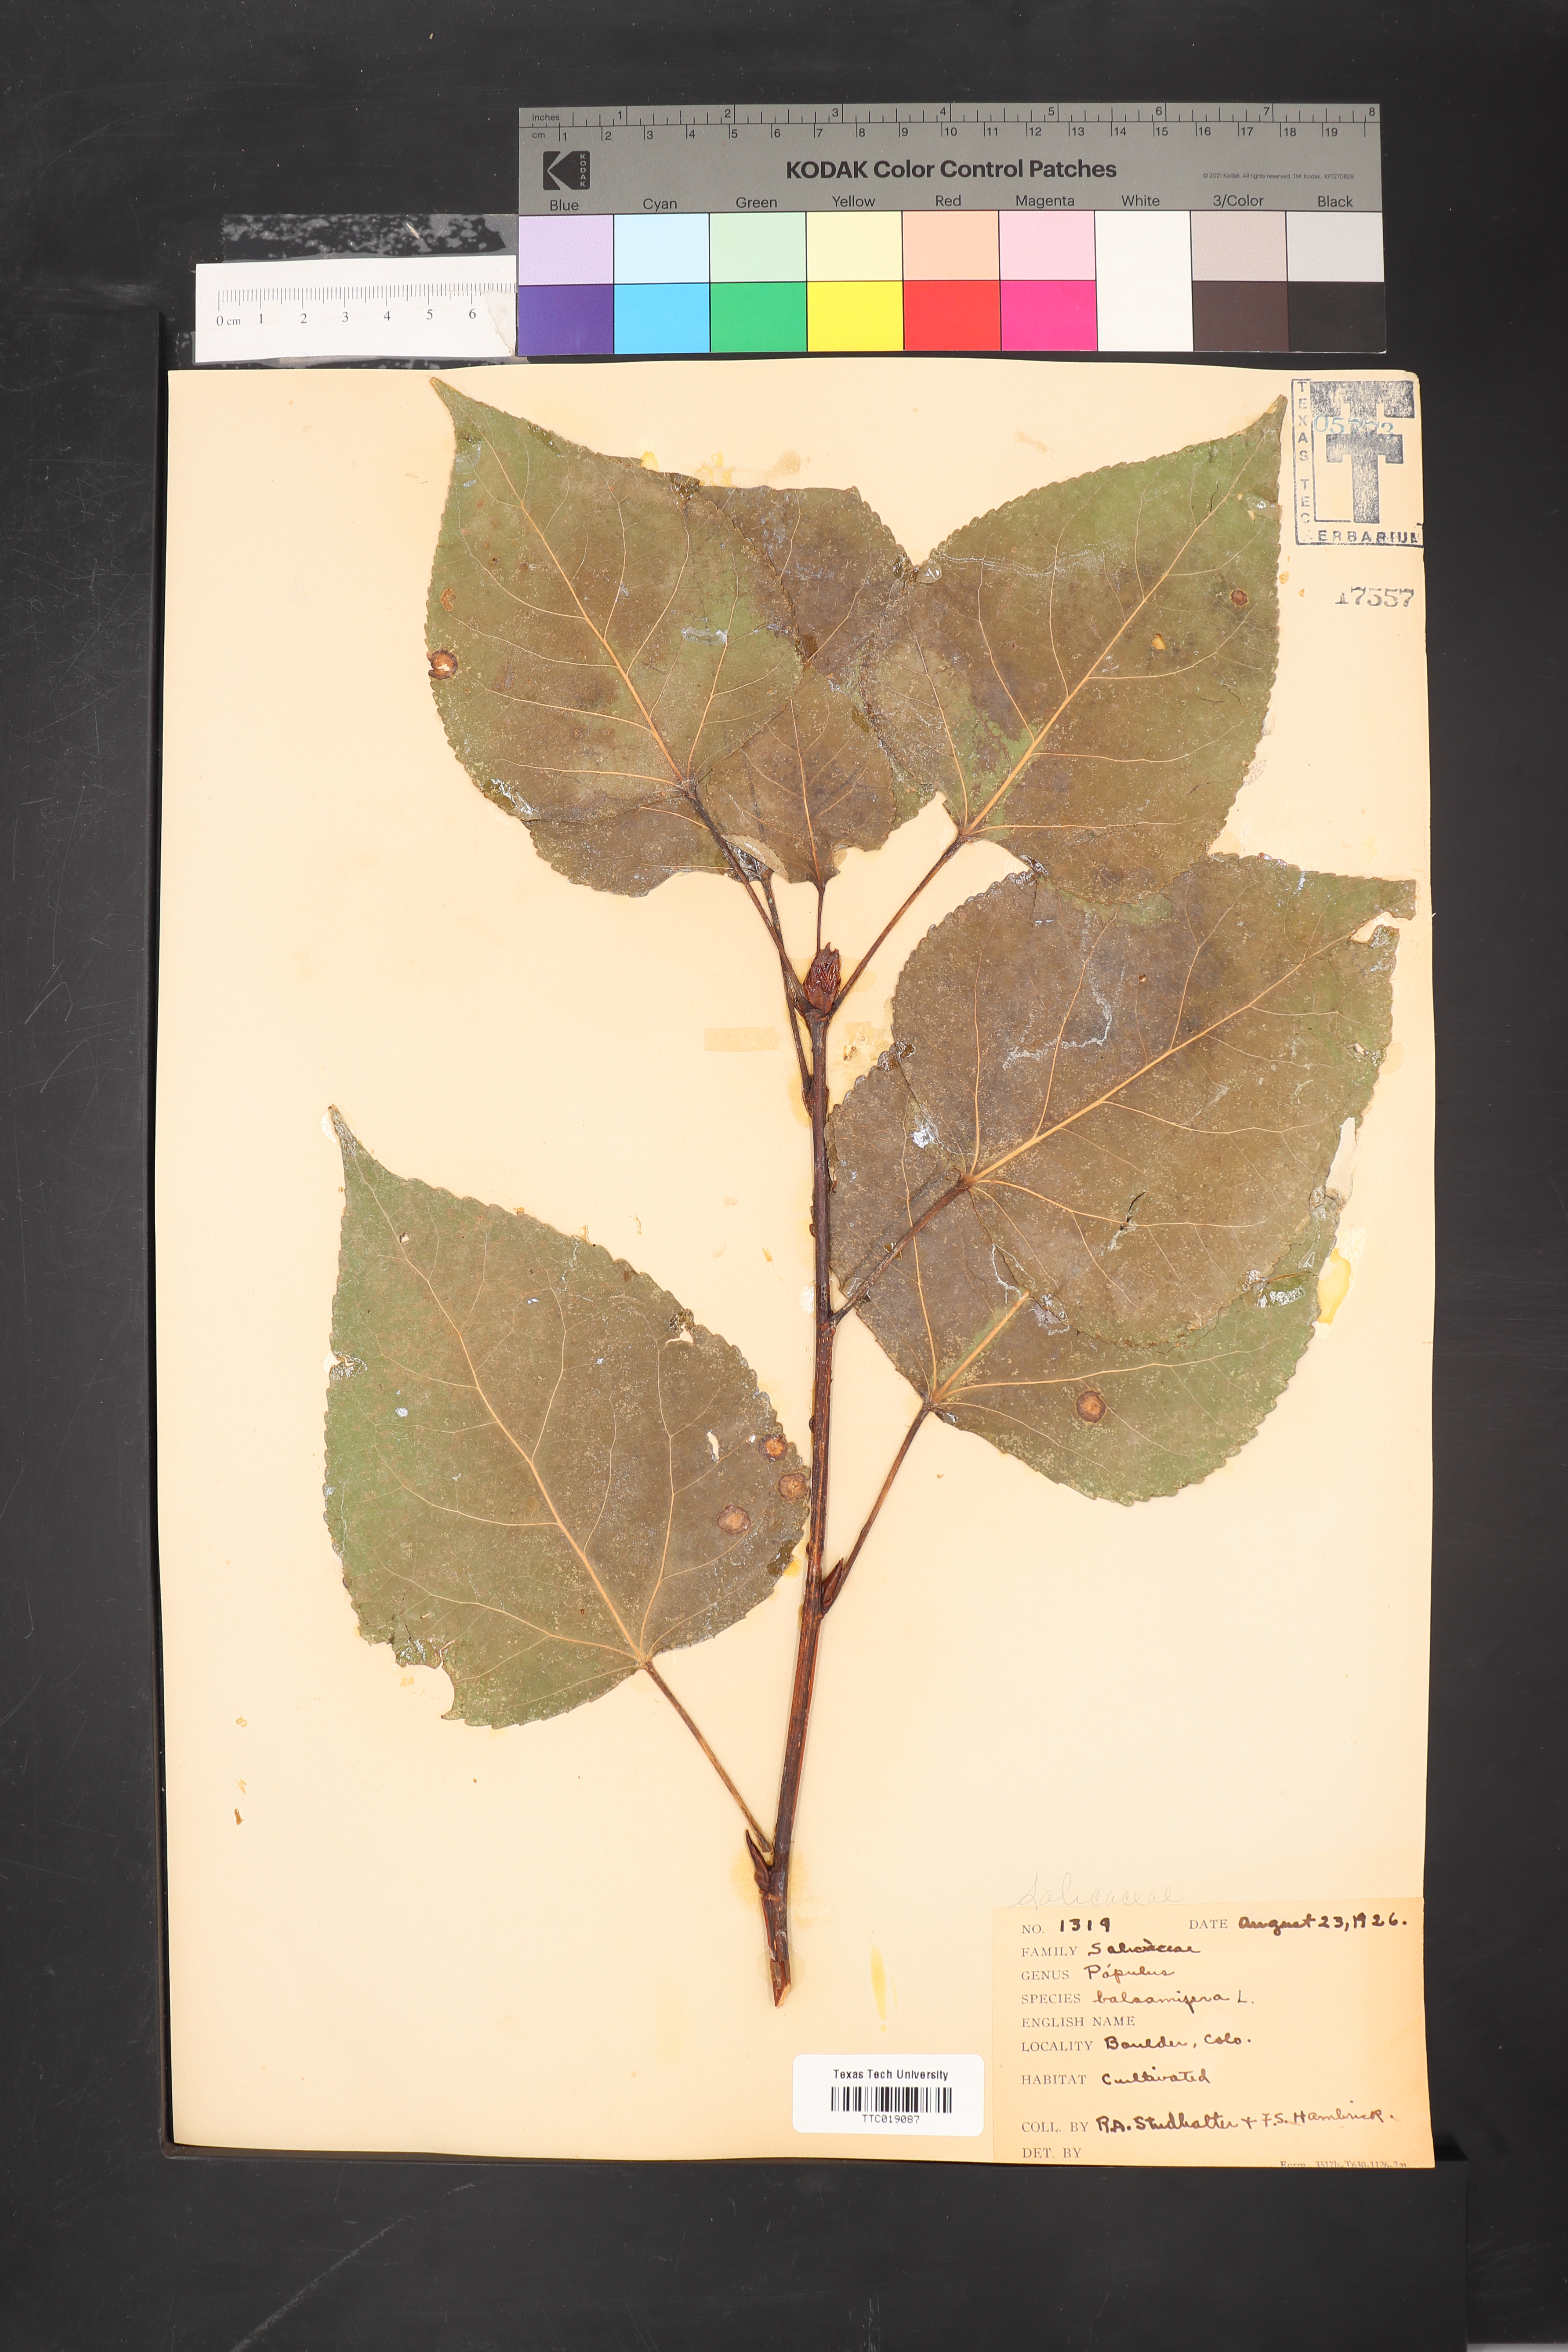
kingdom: Plantae
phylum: Tracheophyta
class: Magnoliopsida
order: Malpighiales
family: Salicaceae
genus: Populus
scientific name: Populus balsamifera
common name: Balsam poplar
